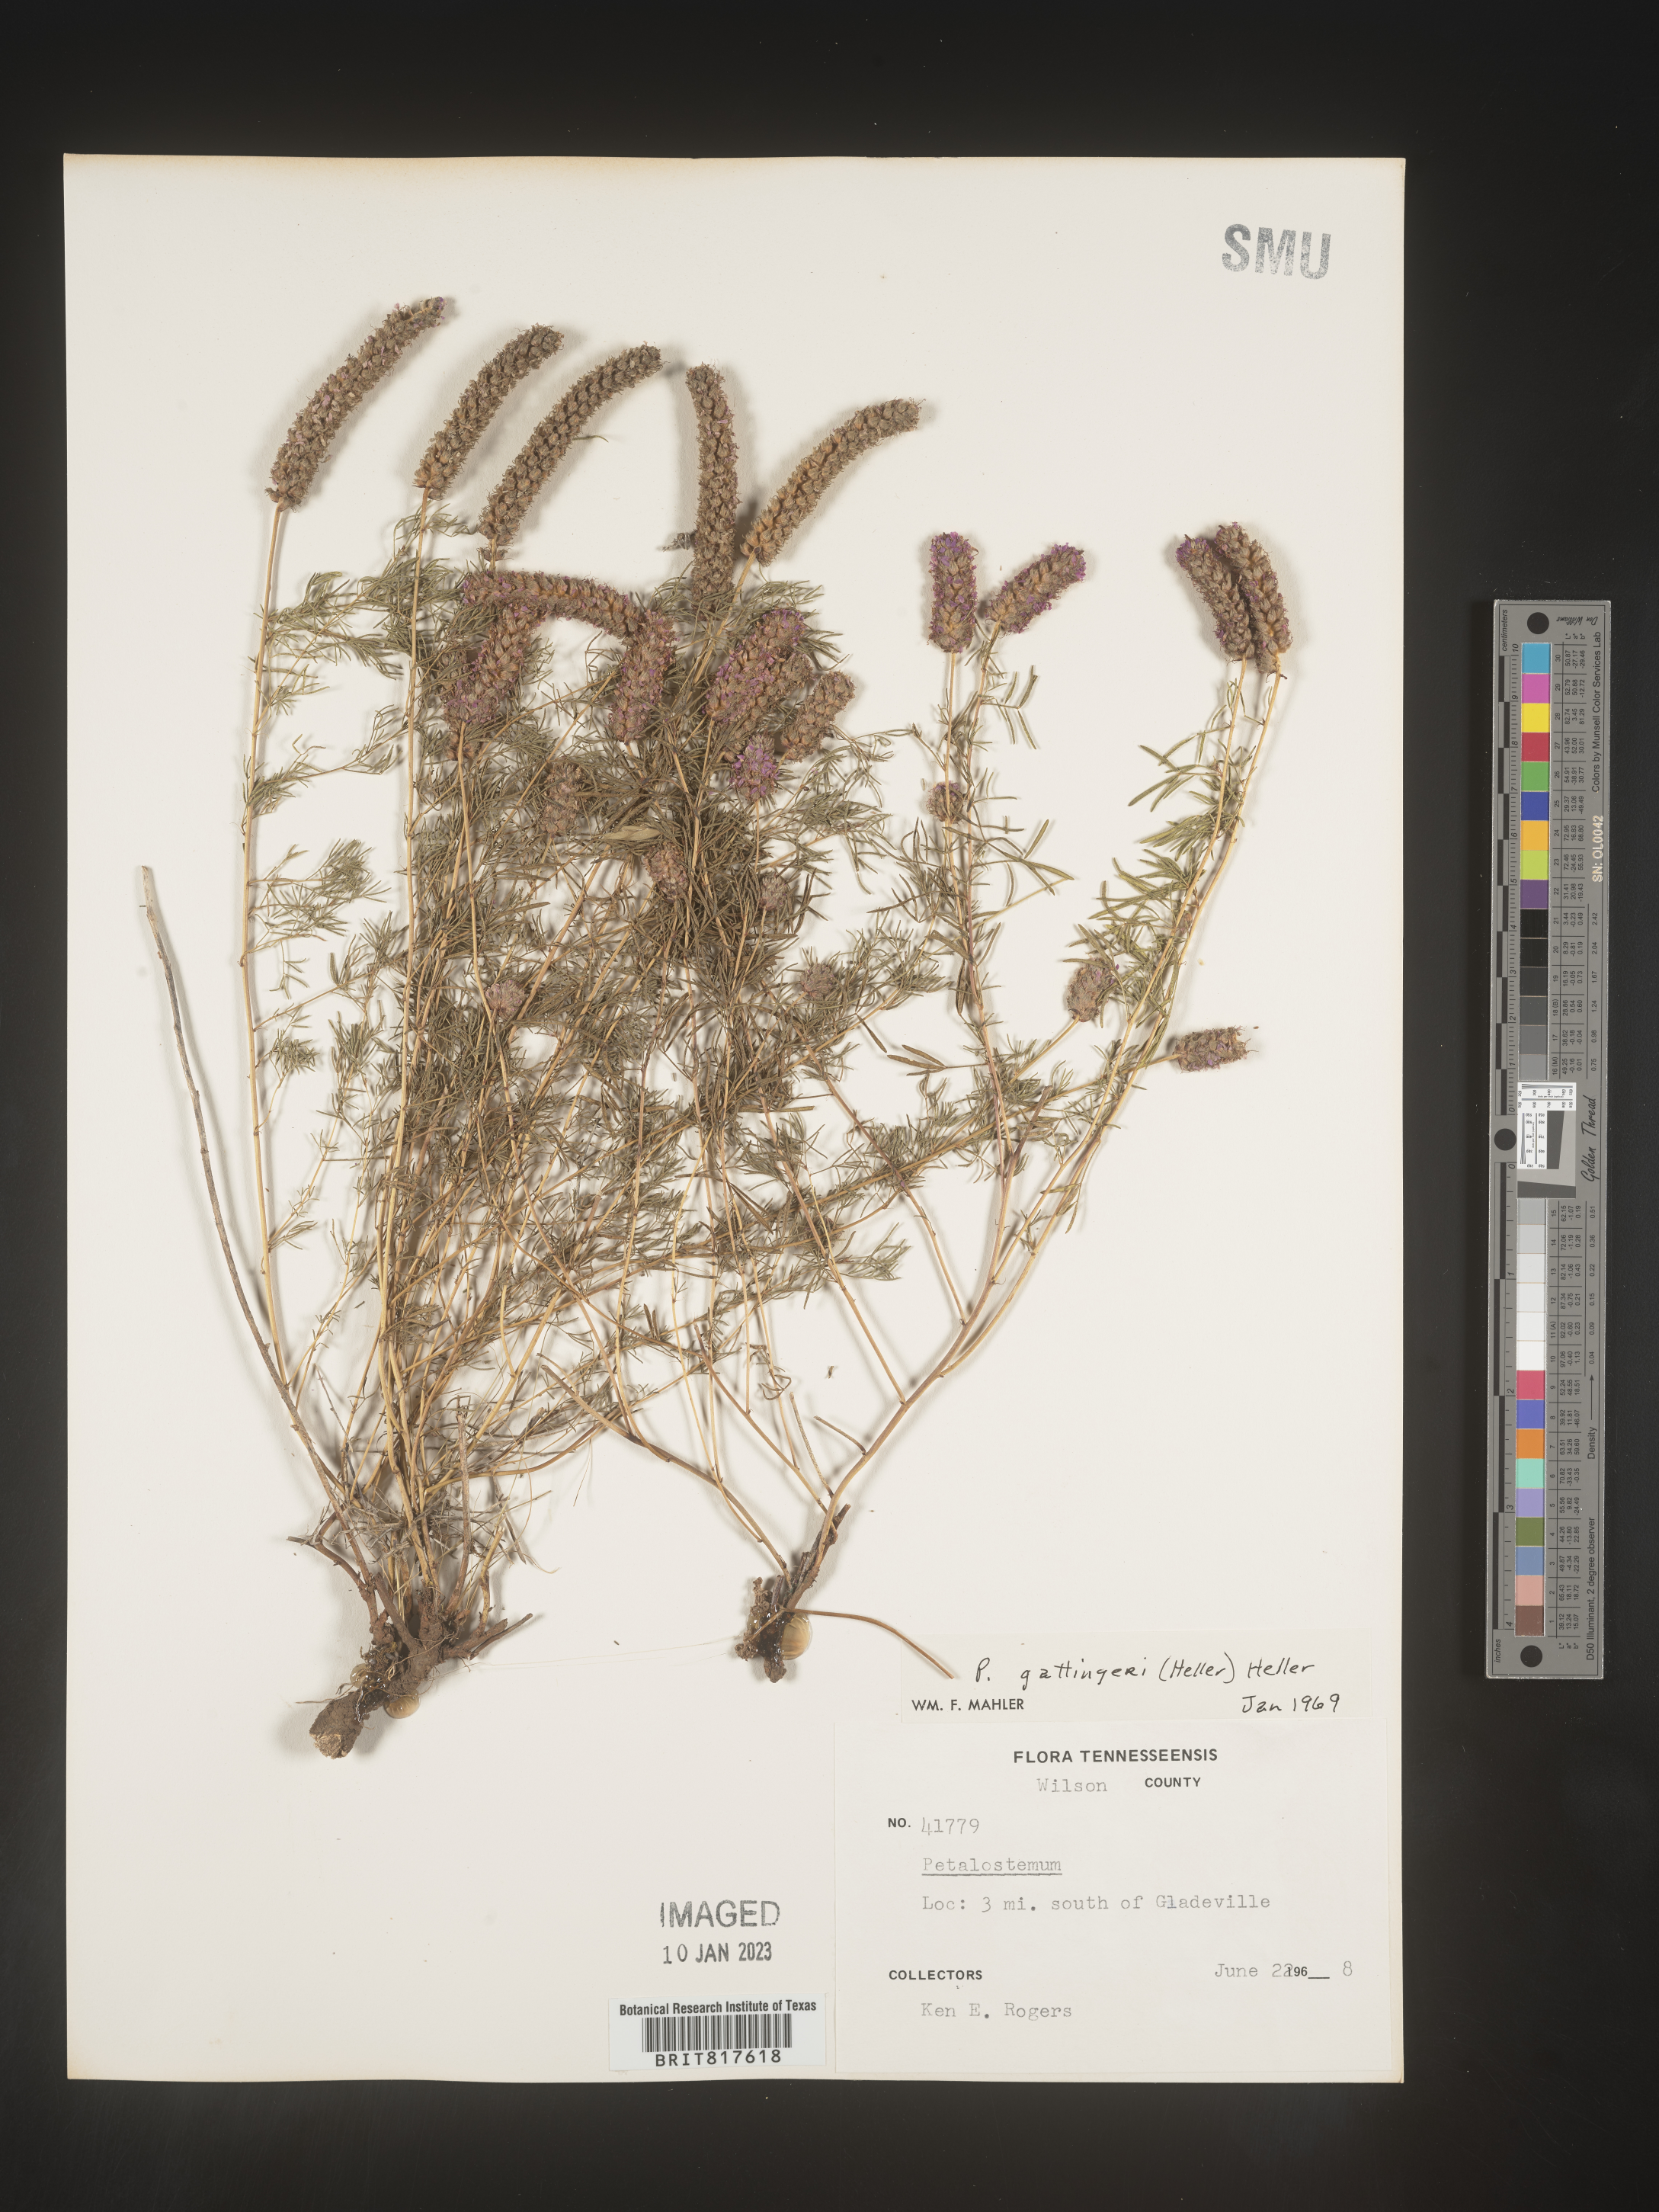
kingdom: Plantae
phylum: Tracheophyta
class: Magnoliopsida
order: Fabales
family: Fabaceae
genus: Dalea
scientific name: Dalea gattingeri
